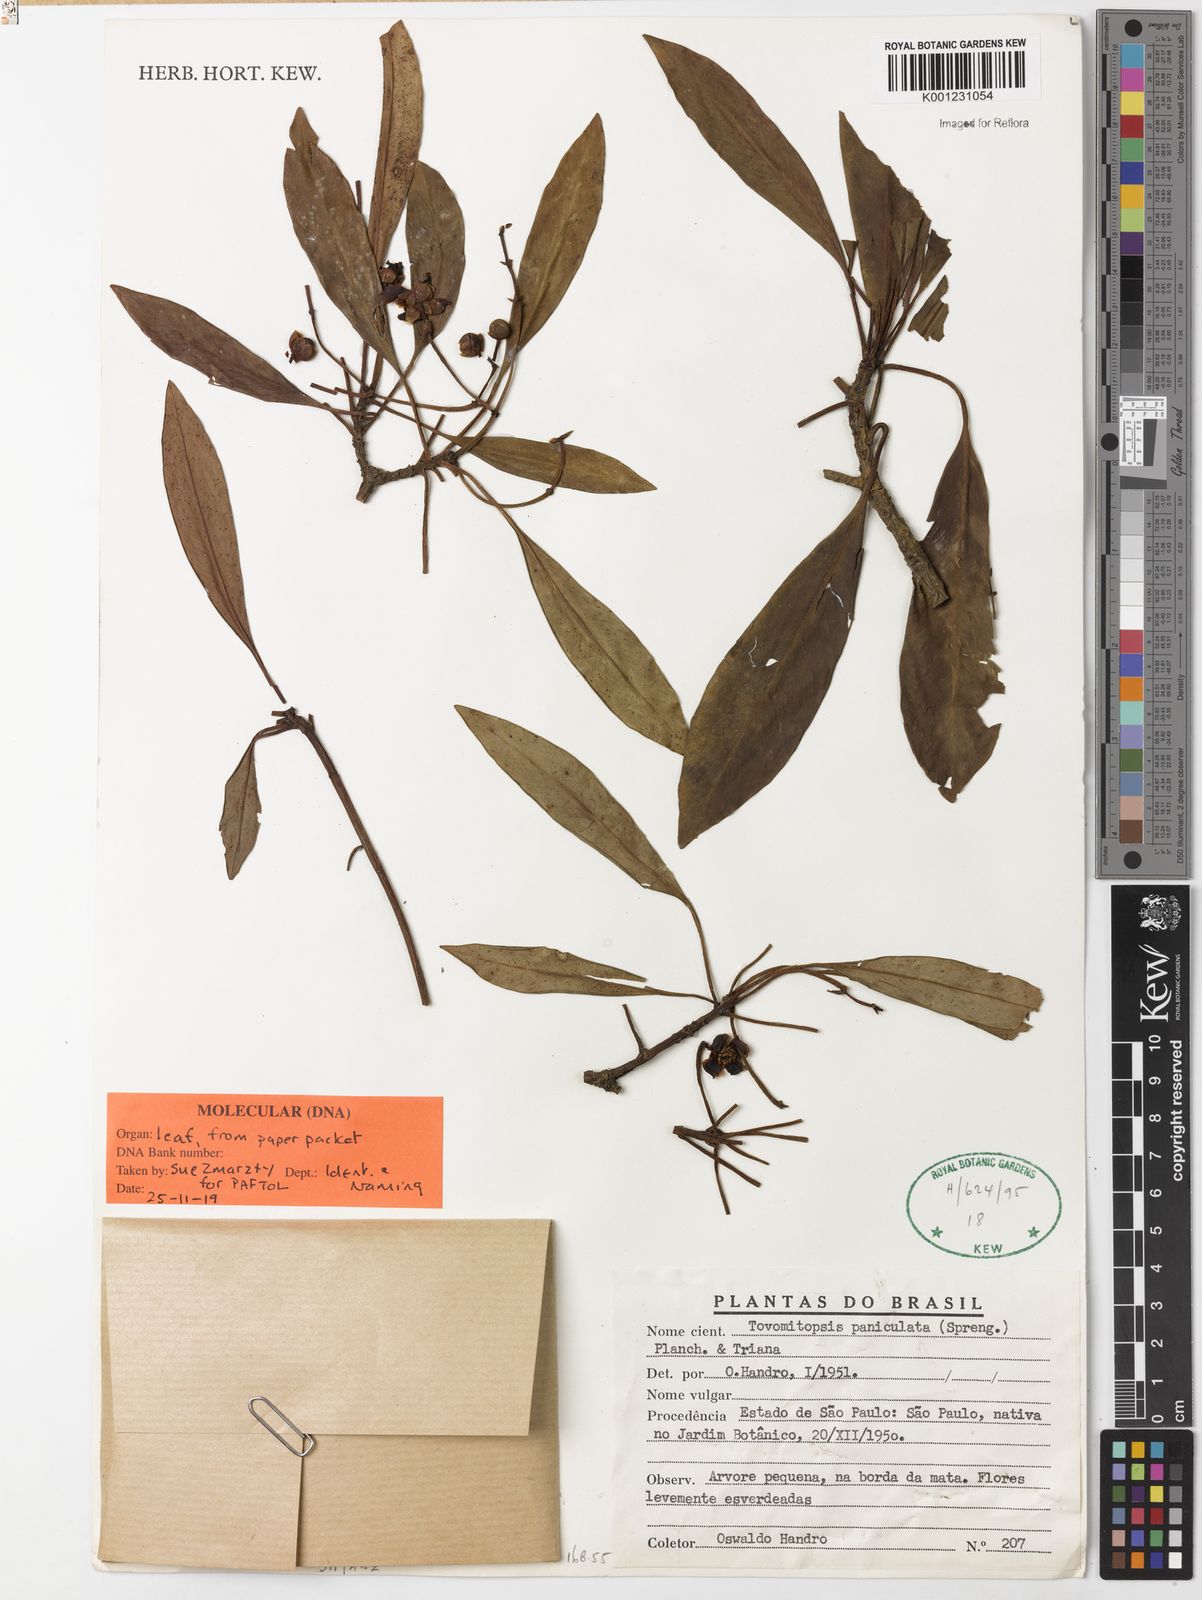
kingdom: Plantae
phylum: Tracheophyta
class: Magnoliopsida
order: Malpighiales
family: Clusiaceae
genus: Chrysochlamys
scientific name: Chrysochlamys paniculata
